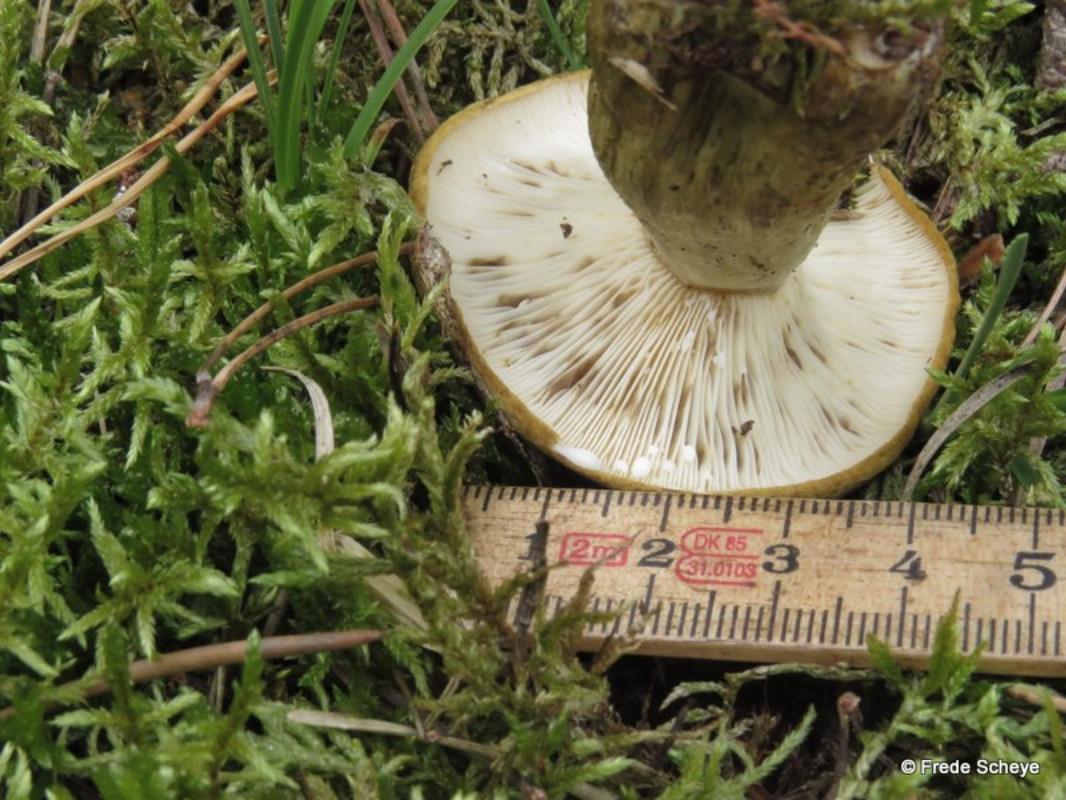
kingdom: Fungi
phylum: Basidiomycota
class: Agaricomycetes
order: Russulales
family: Russulaceae
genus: Lactarius
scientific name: Lactarius necator
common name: manddraber-mælkehat
